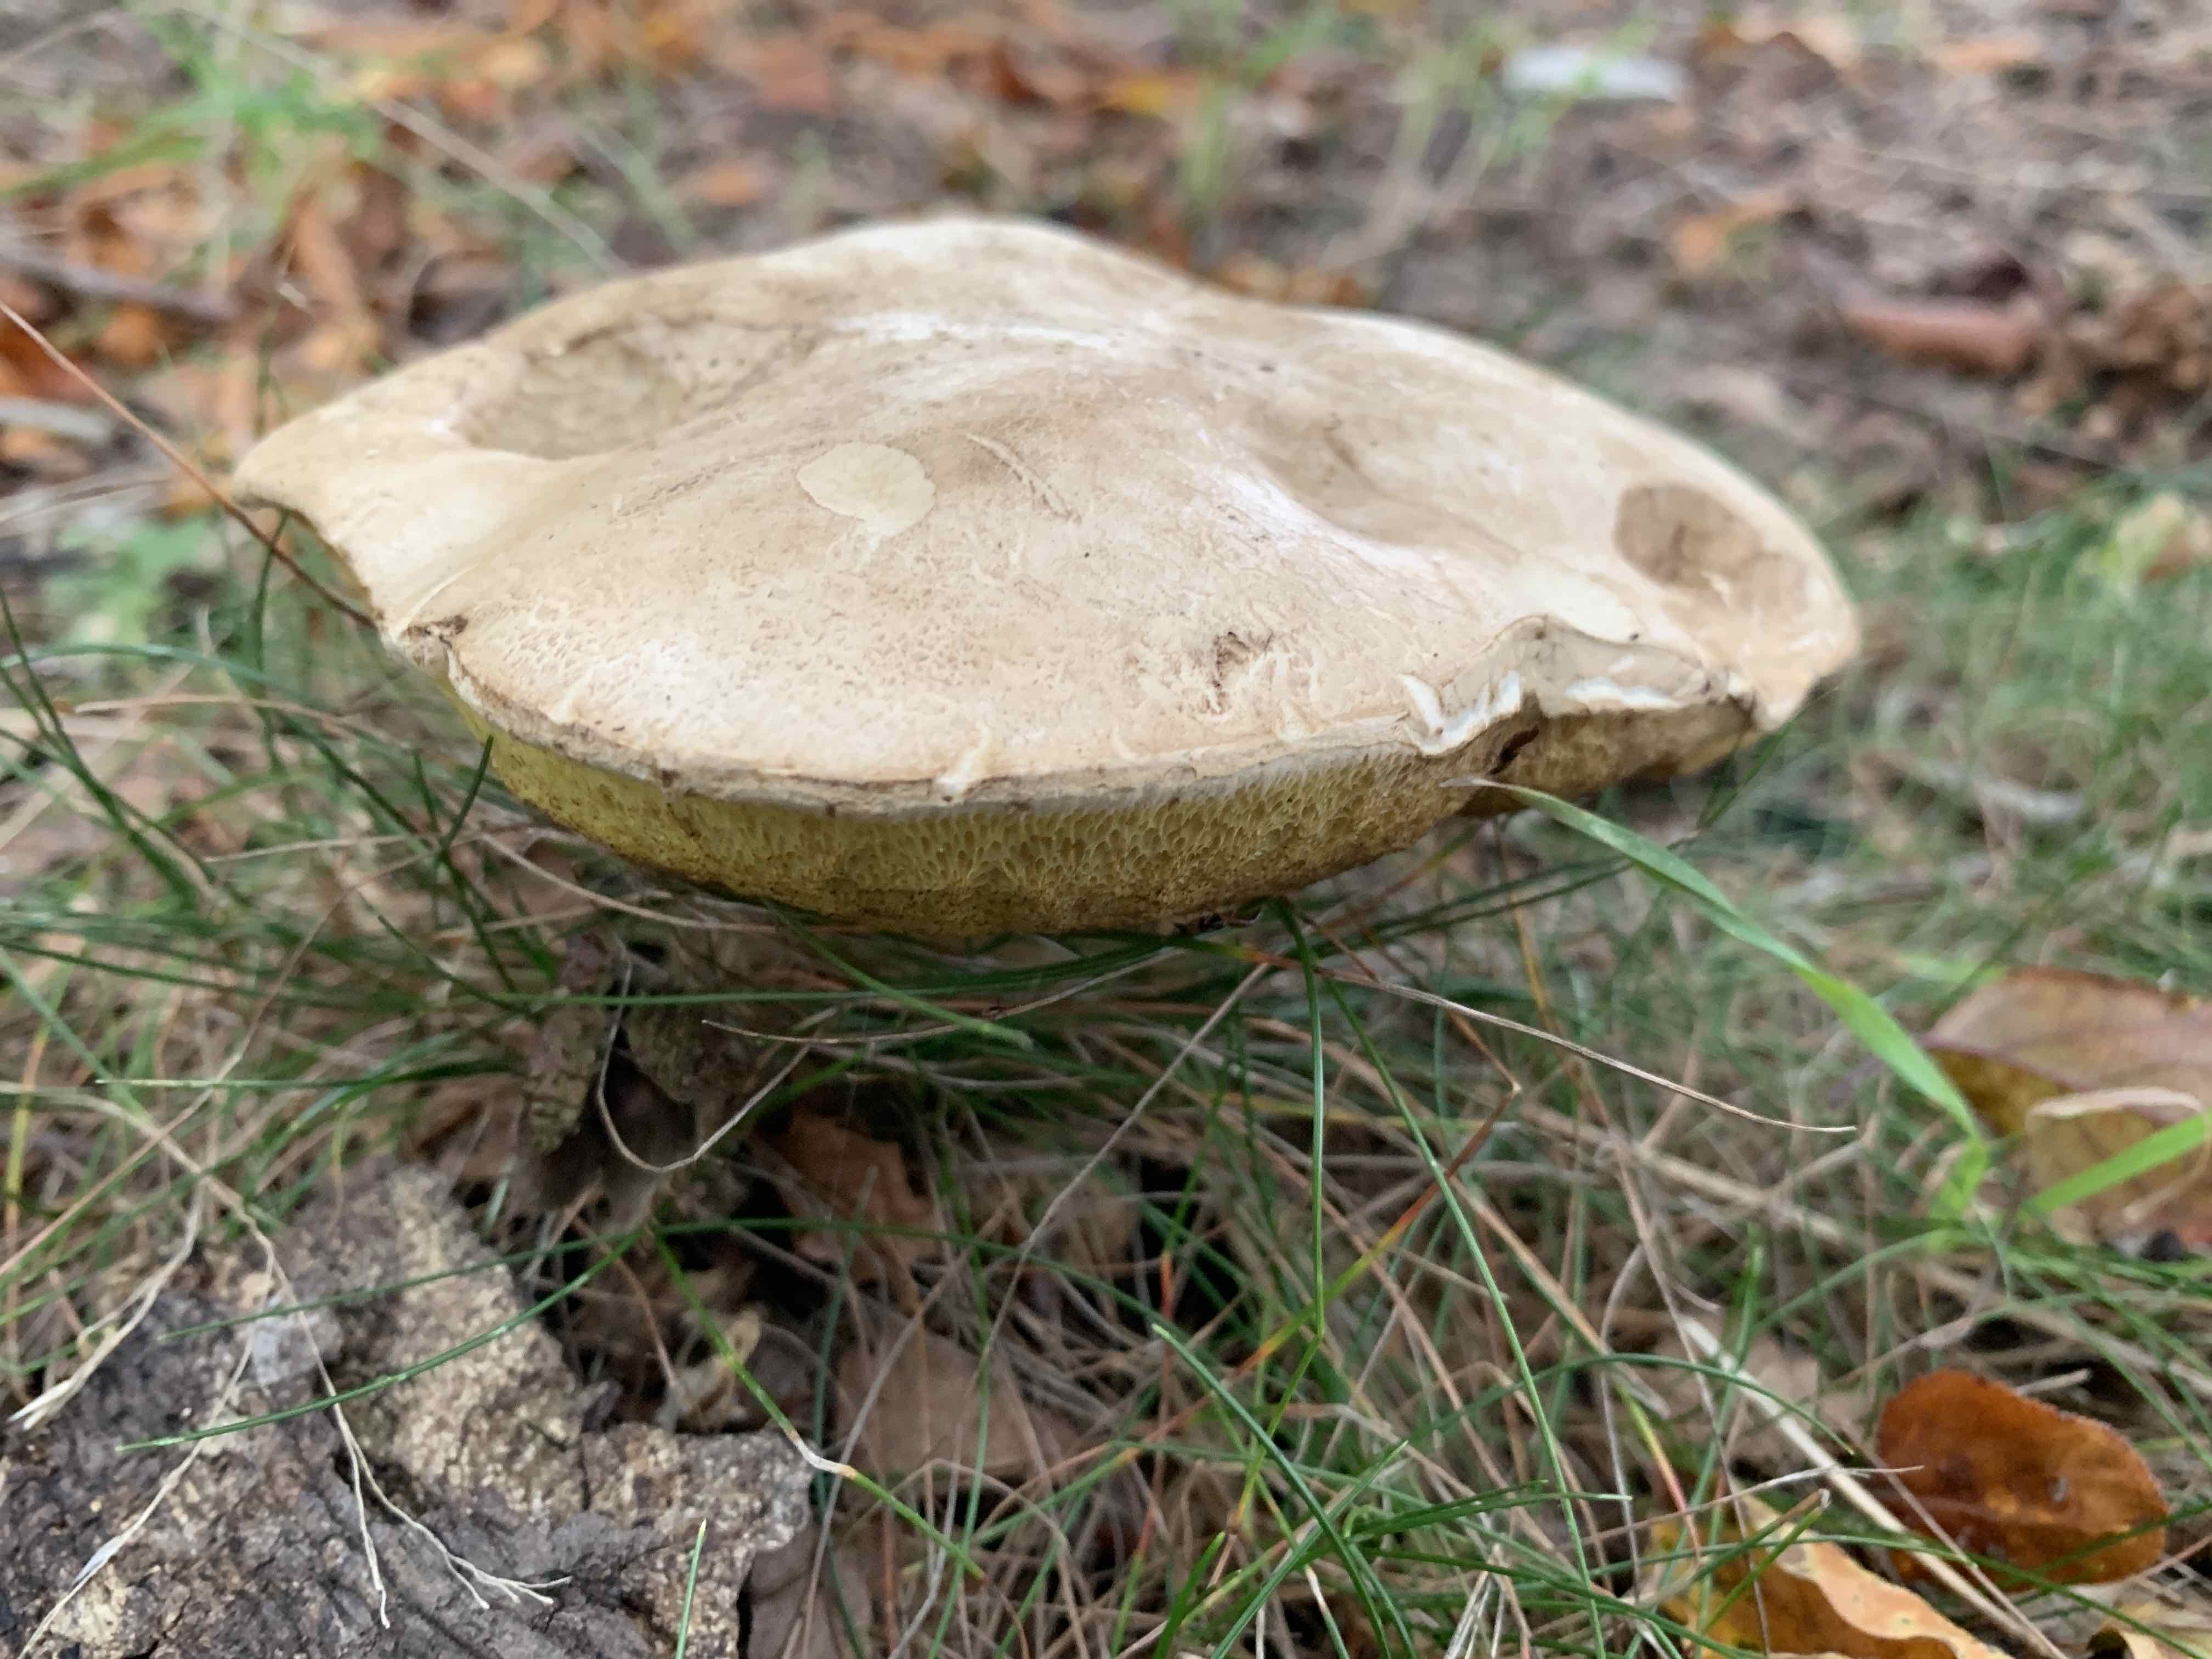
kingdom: Fungi
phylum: Basidiomycota
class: Agaricomycetes
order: Boletales
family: Boletaceae
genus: Caloboletus
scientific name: Caloboletus radicans
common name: rod-rørhat
